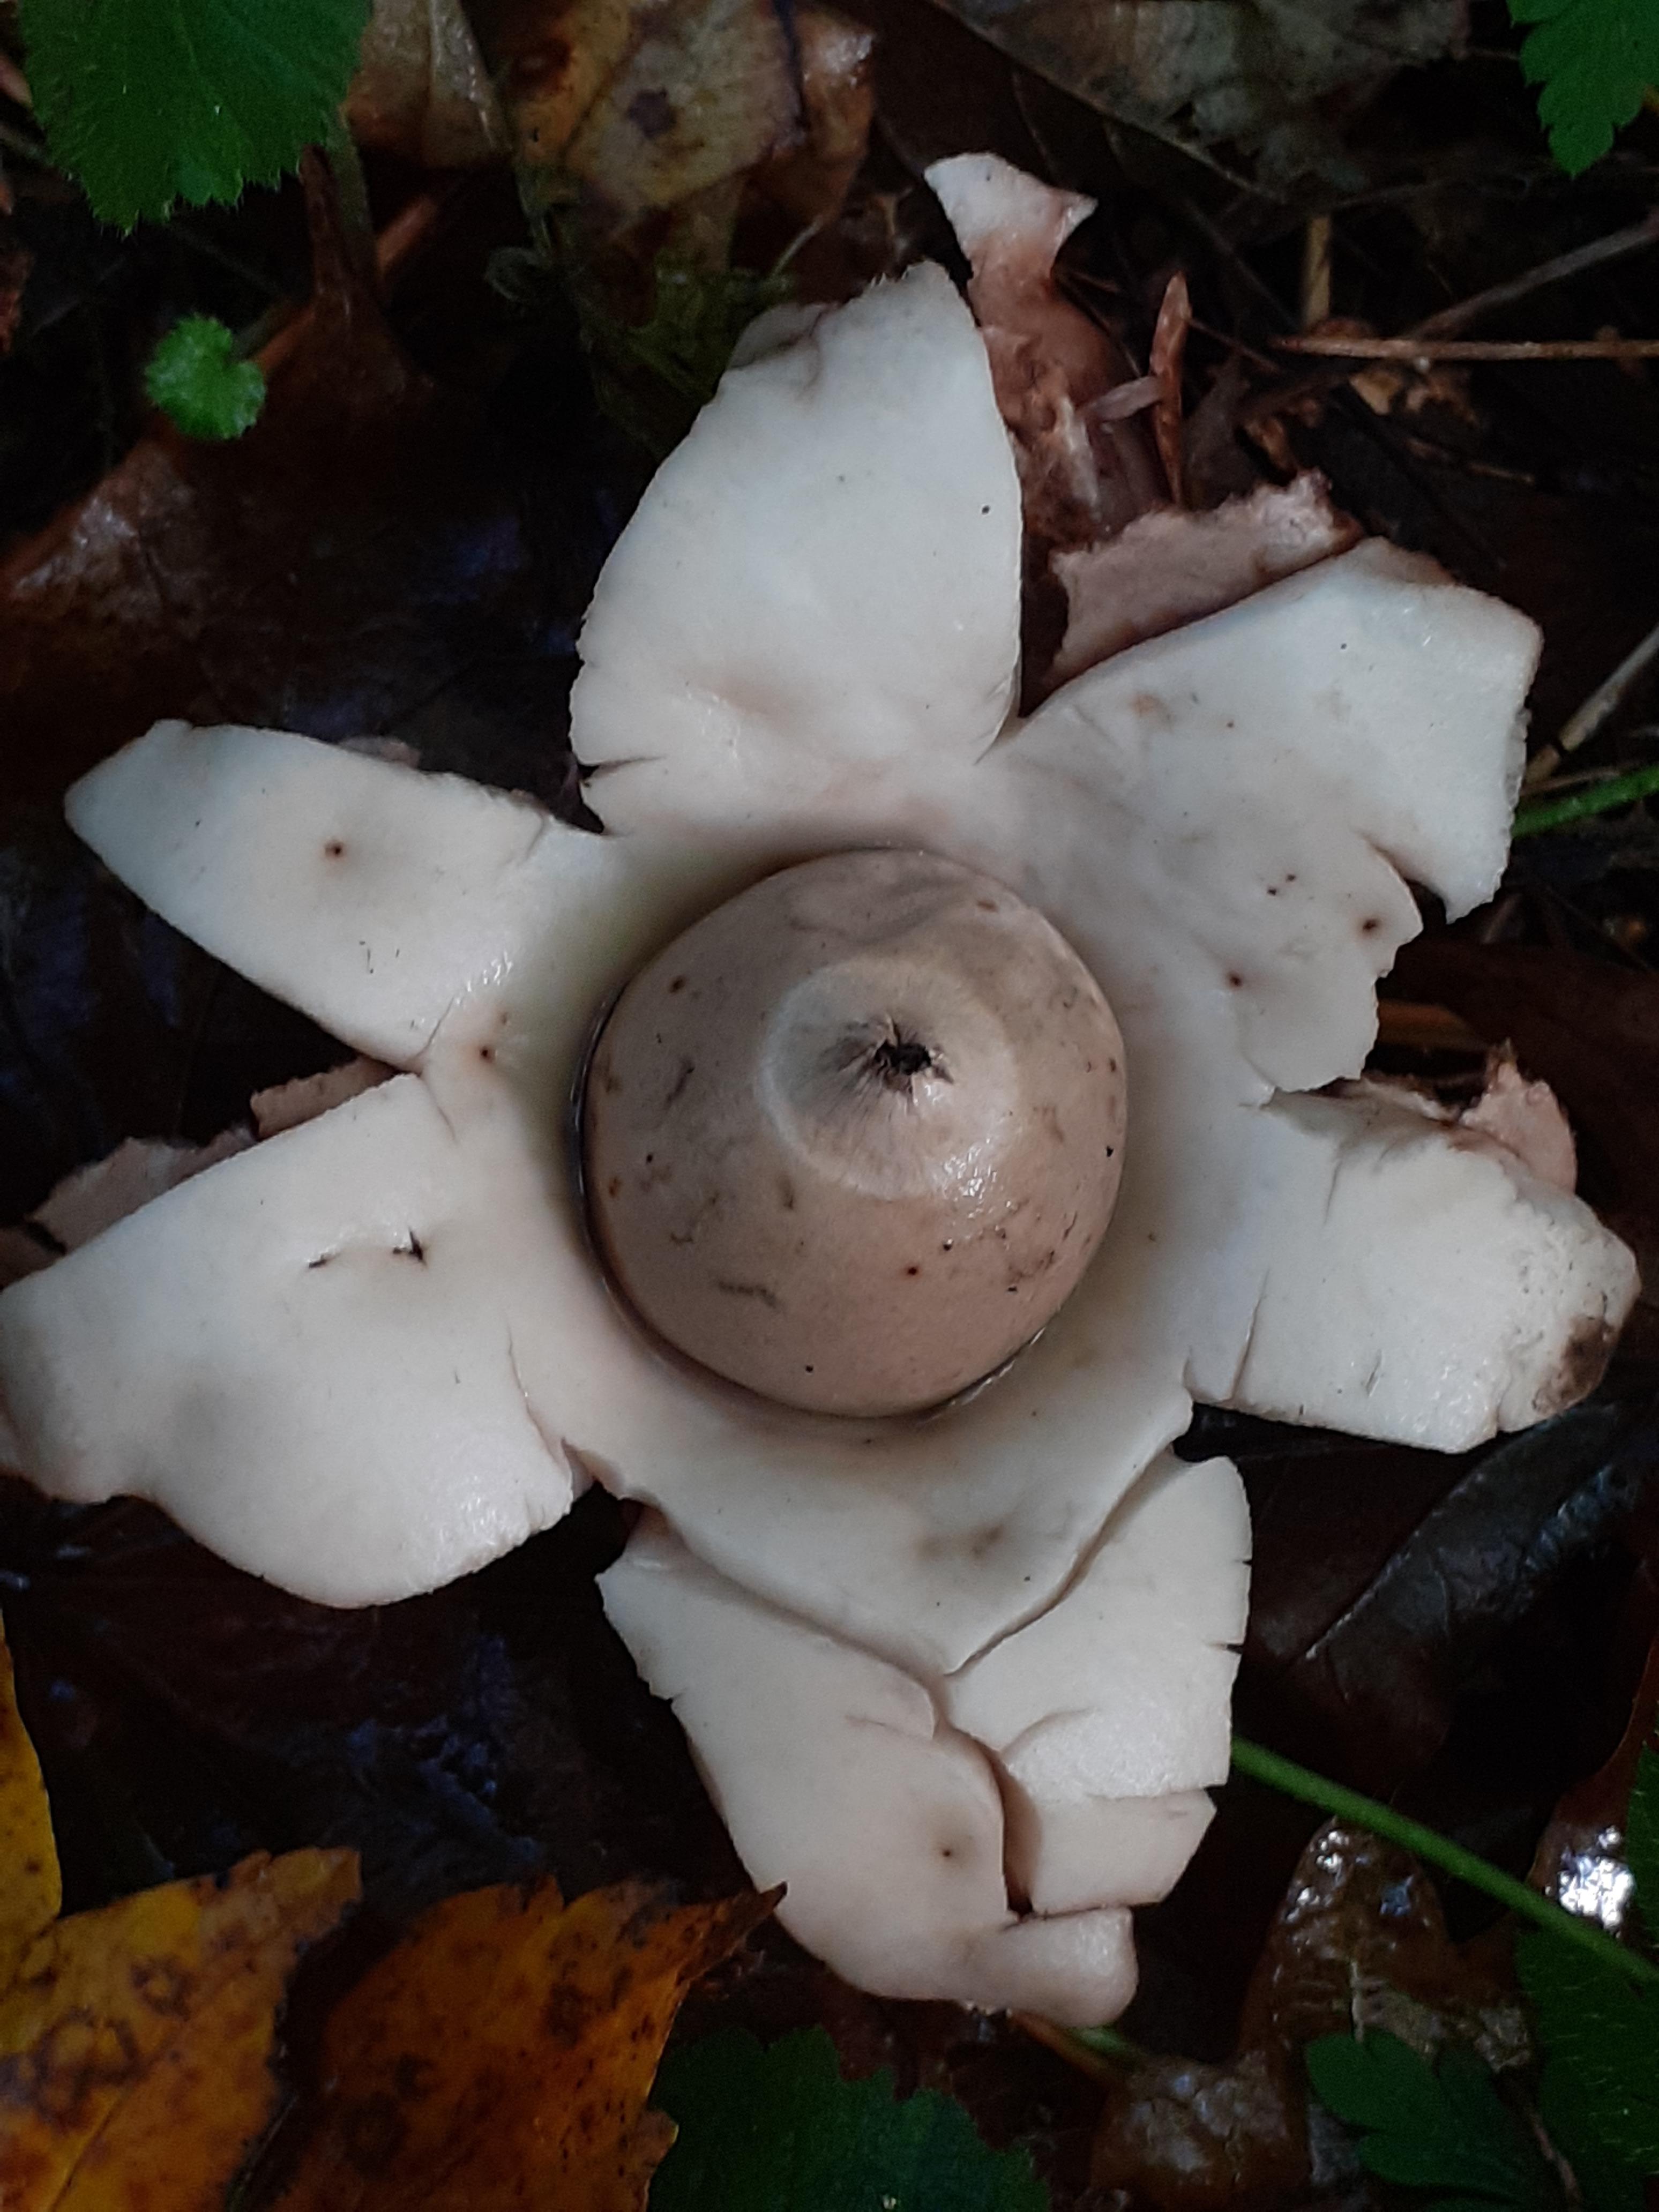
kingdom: Fungi
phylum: Basidiomycota
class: Agaricomycetes
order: Geastrales
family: Geastraceae
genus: Geastrum
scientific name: Geastrum michelianum
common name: kødet stjernebold
